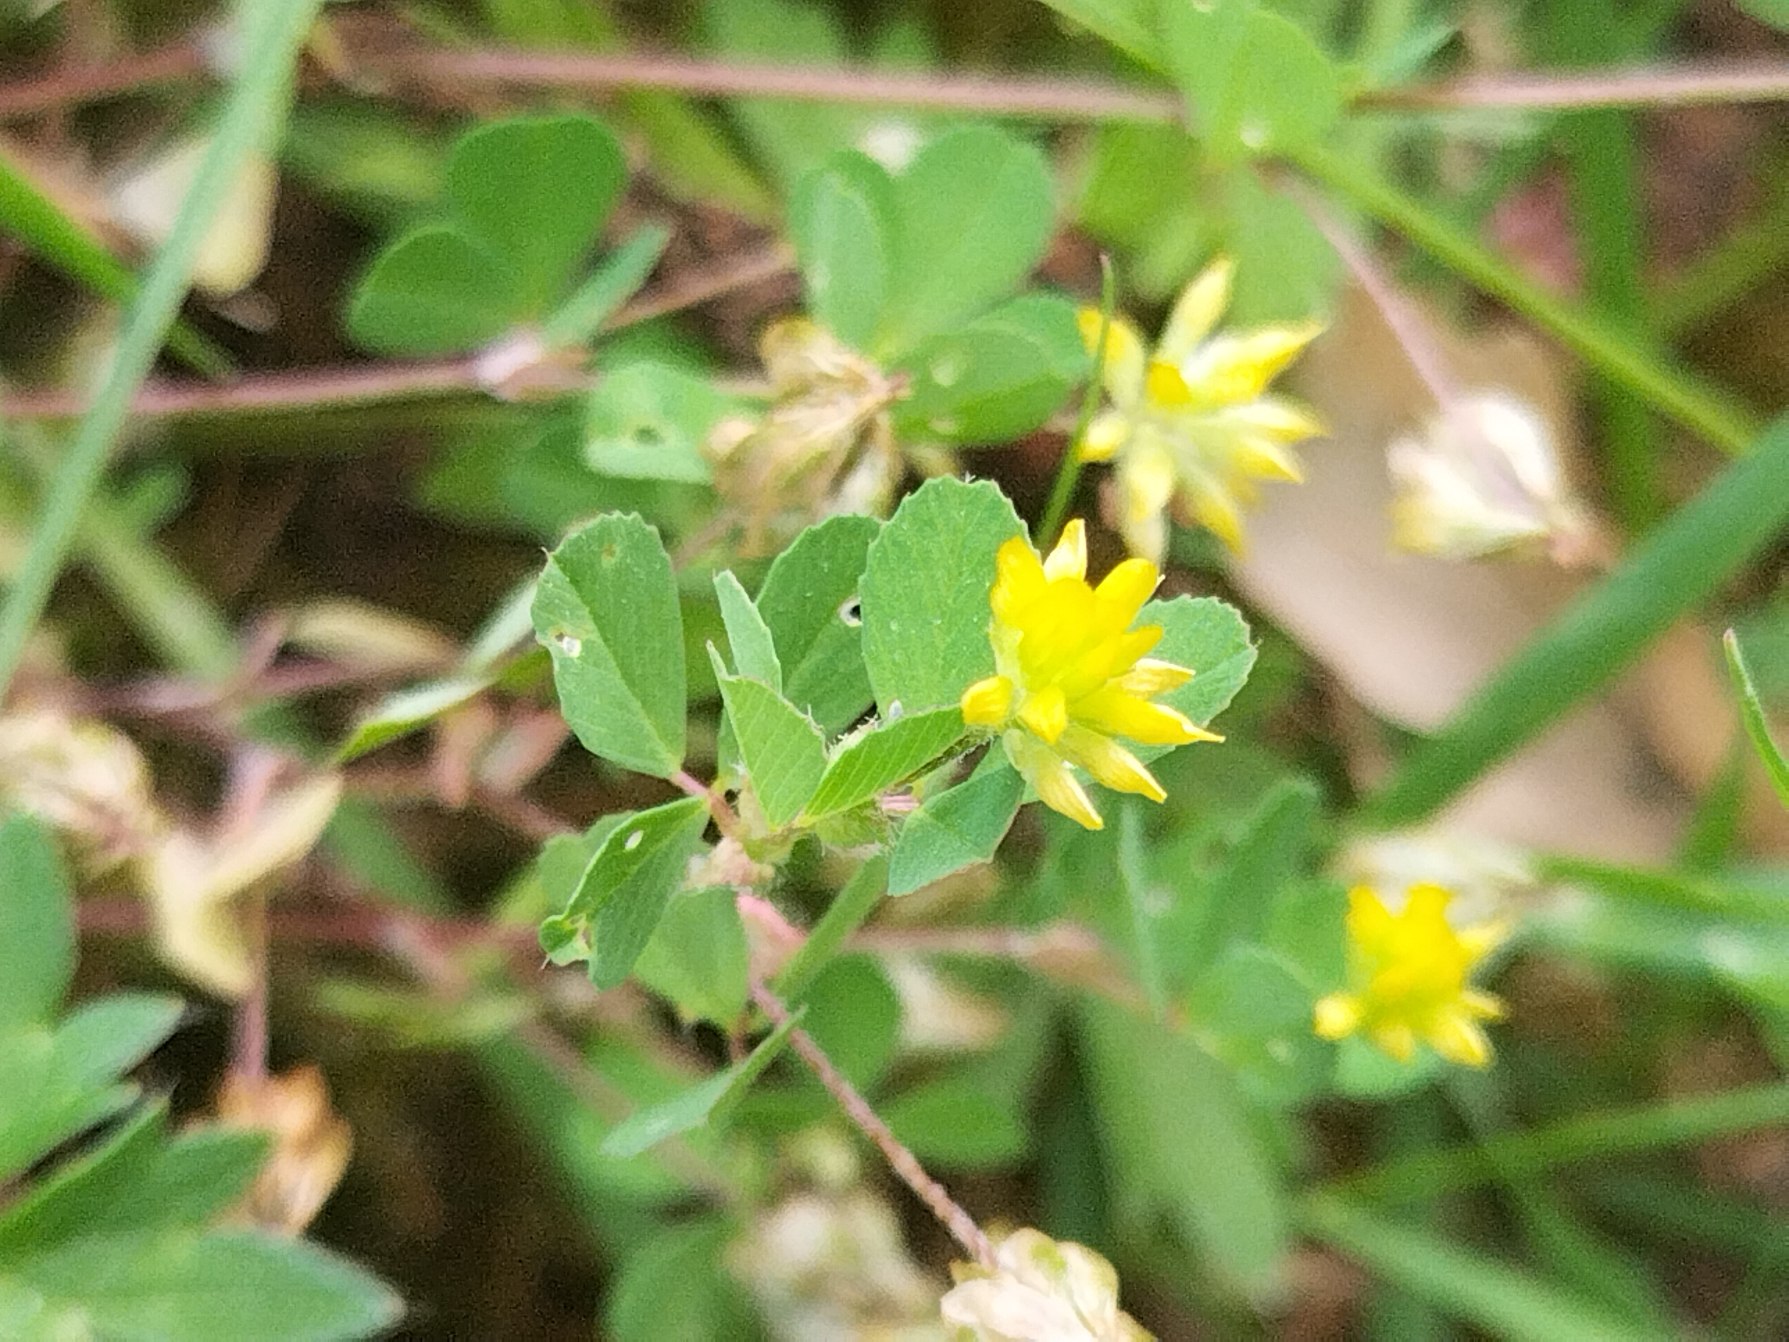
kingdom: Plantae
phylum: Tracheophyta
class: Magnoliopsida
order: Fabales
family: Fabaceae
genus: Trifolium
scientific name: Trifolium dubium
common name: Fin kløver
